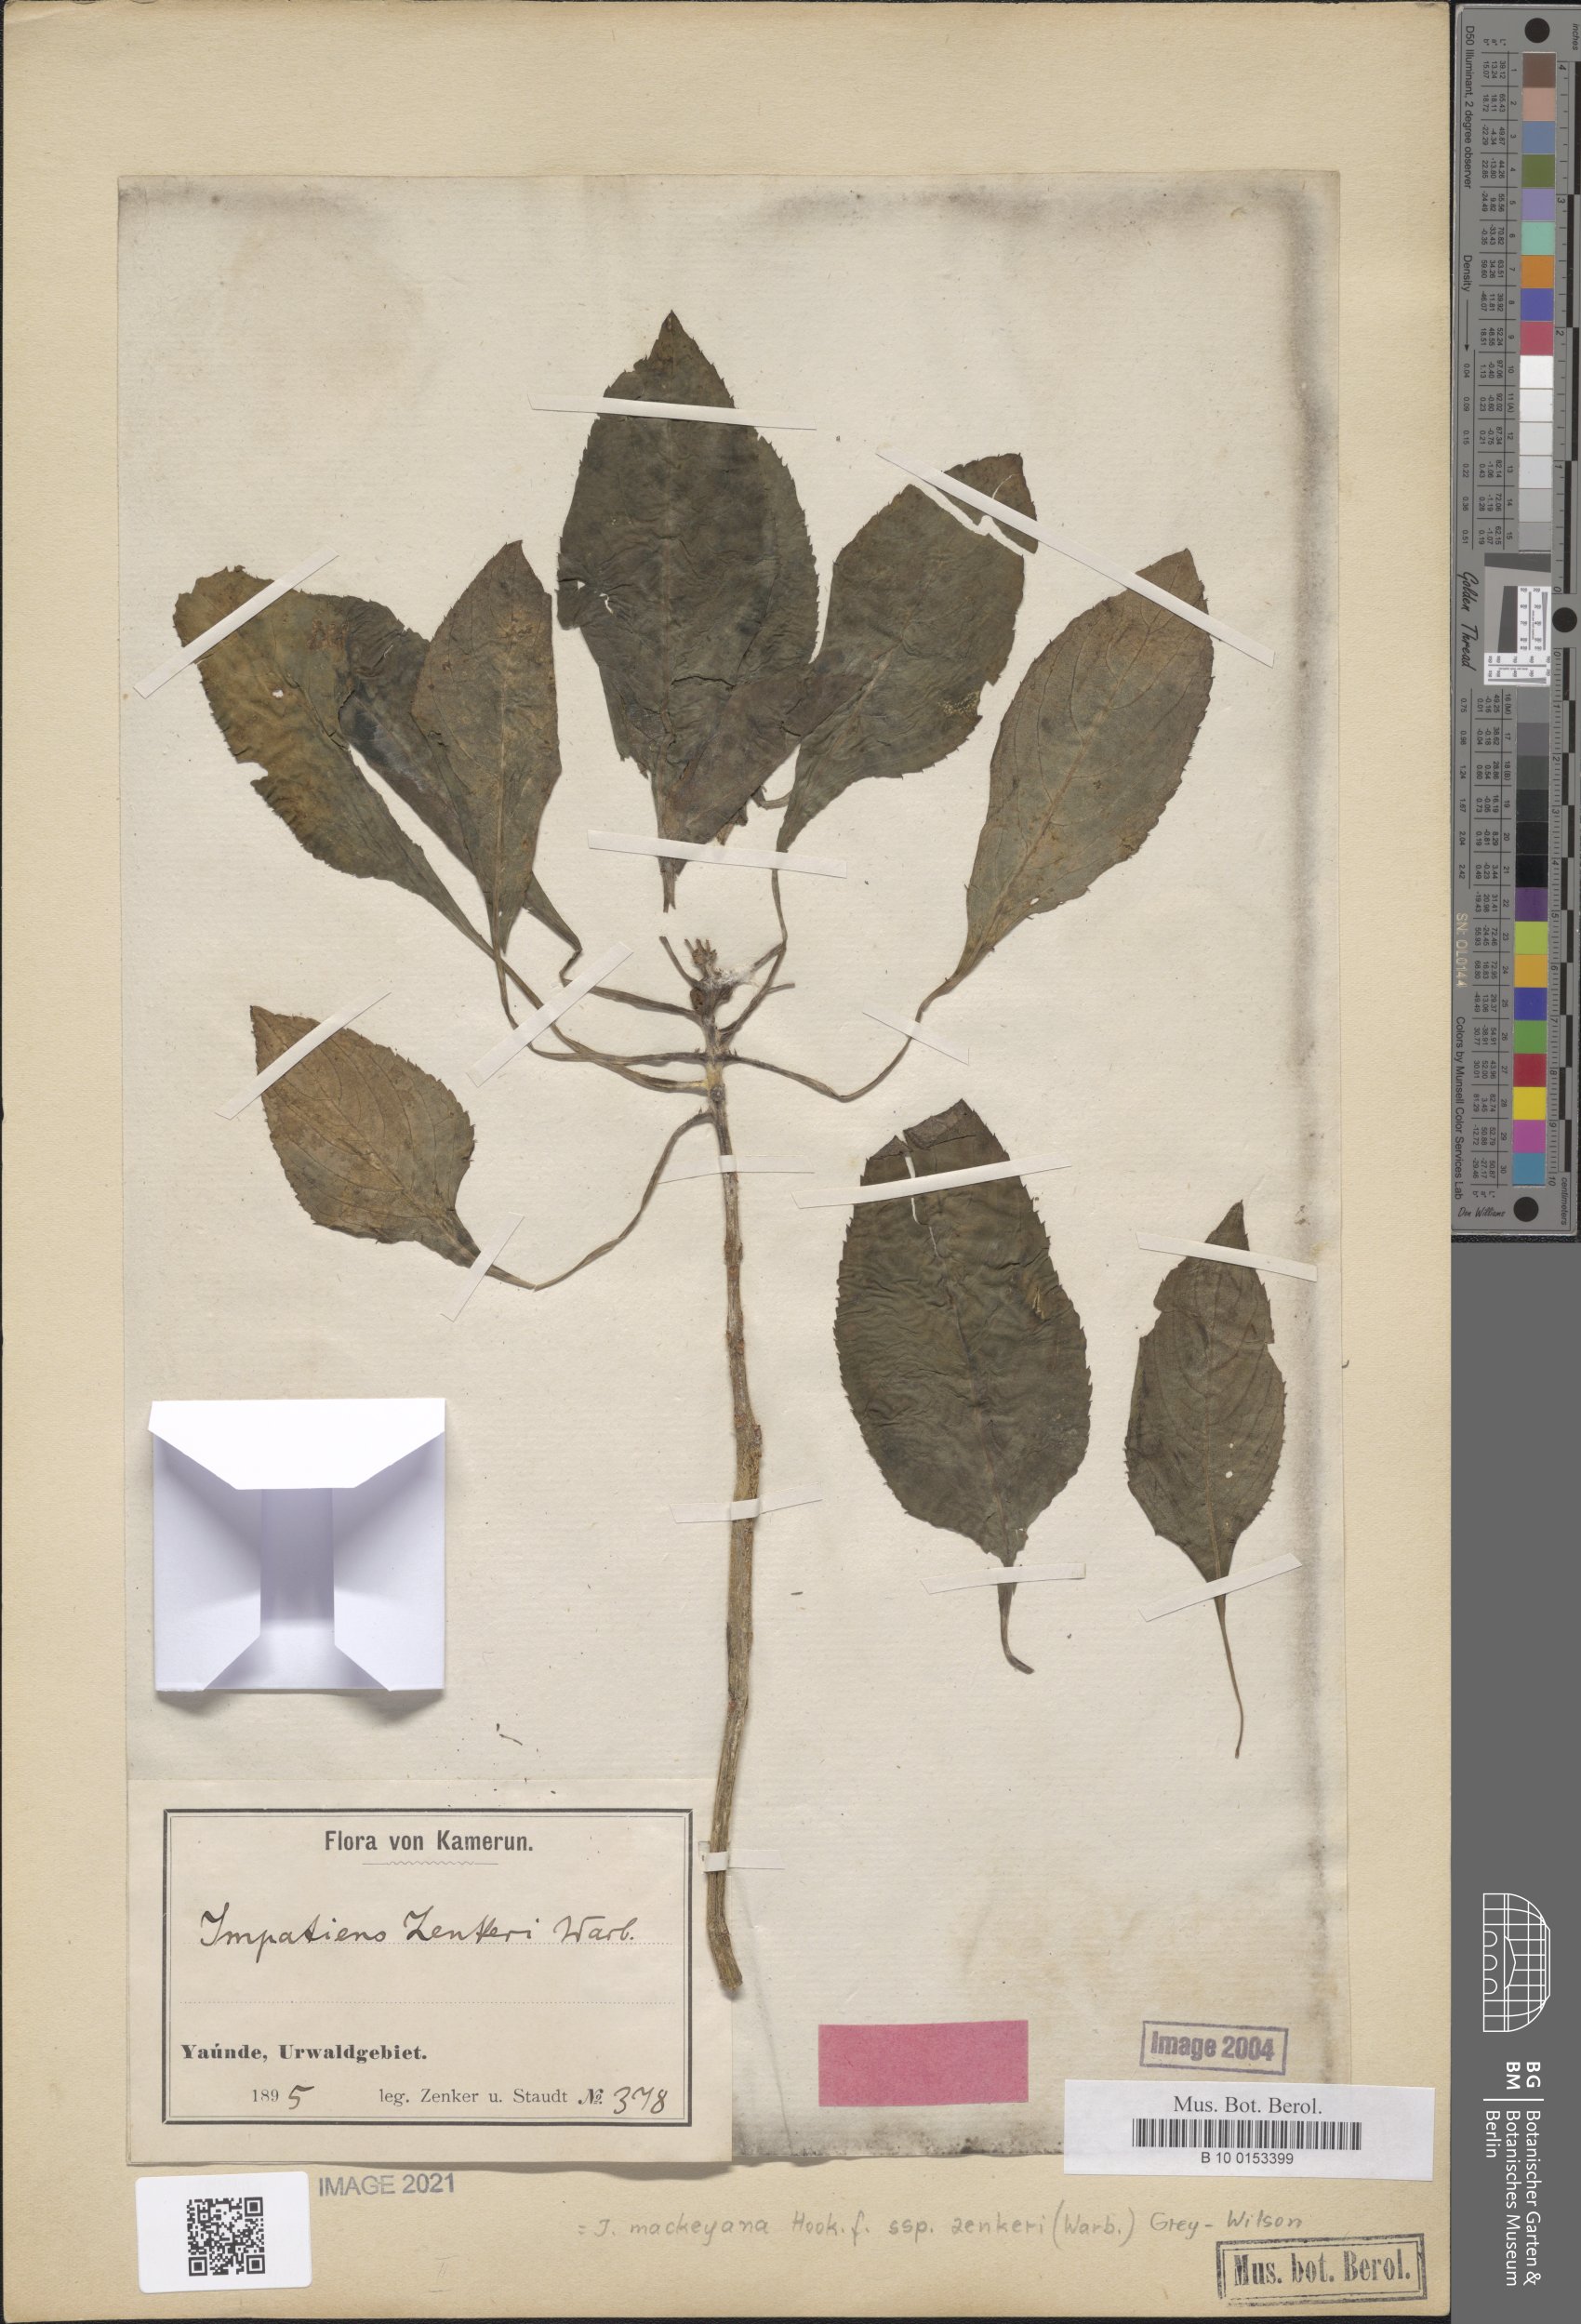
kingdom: Plantae
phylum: Tracheophyta
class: Magnoliopsida
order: Ericales
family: Balsaminaceae
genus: Impatiens
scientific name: Impatiens mackeyana
